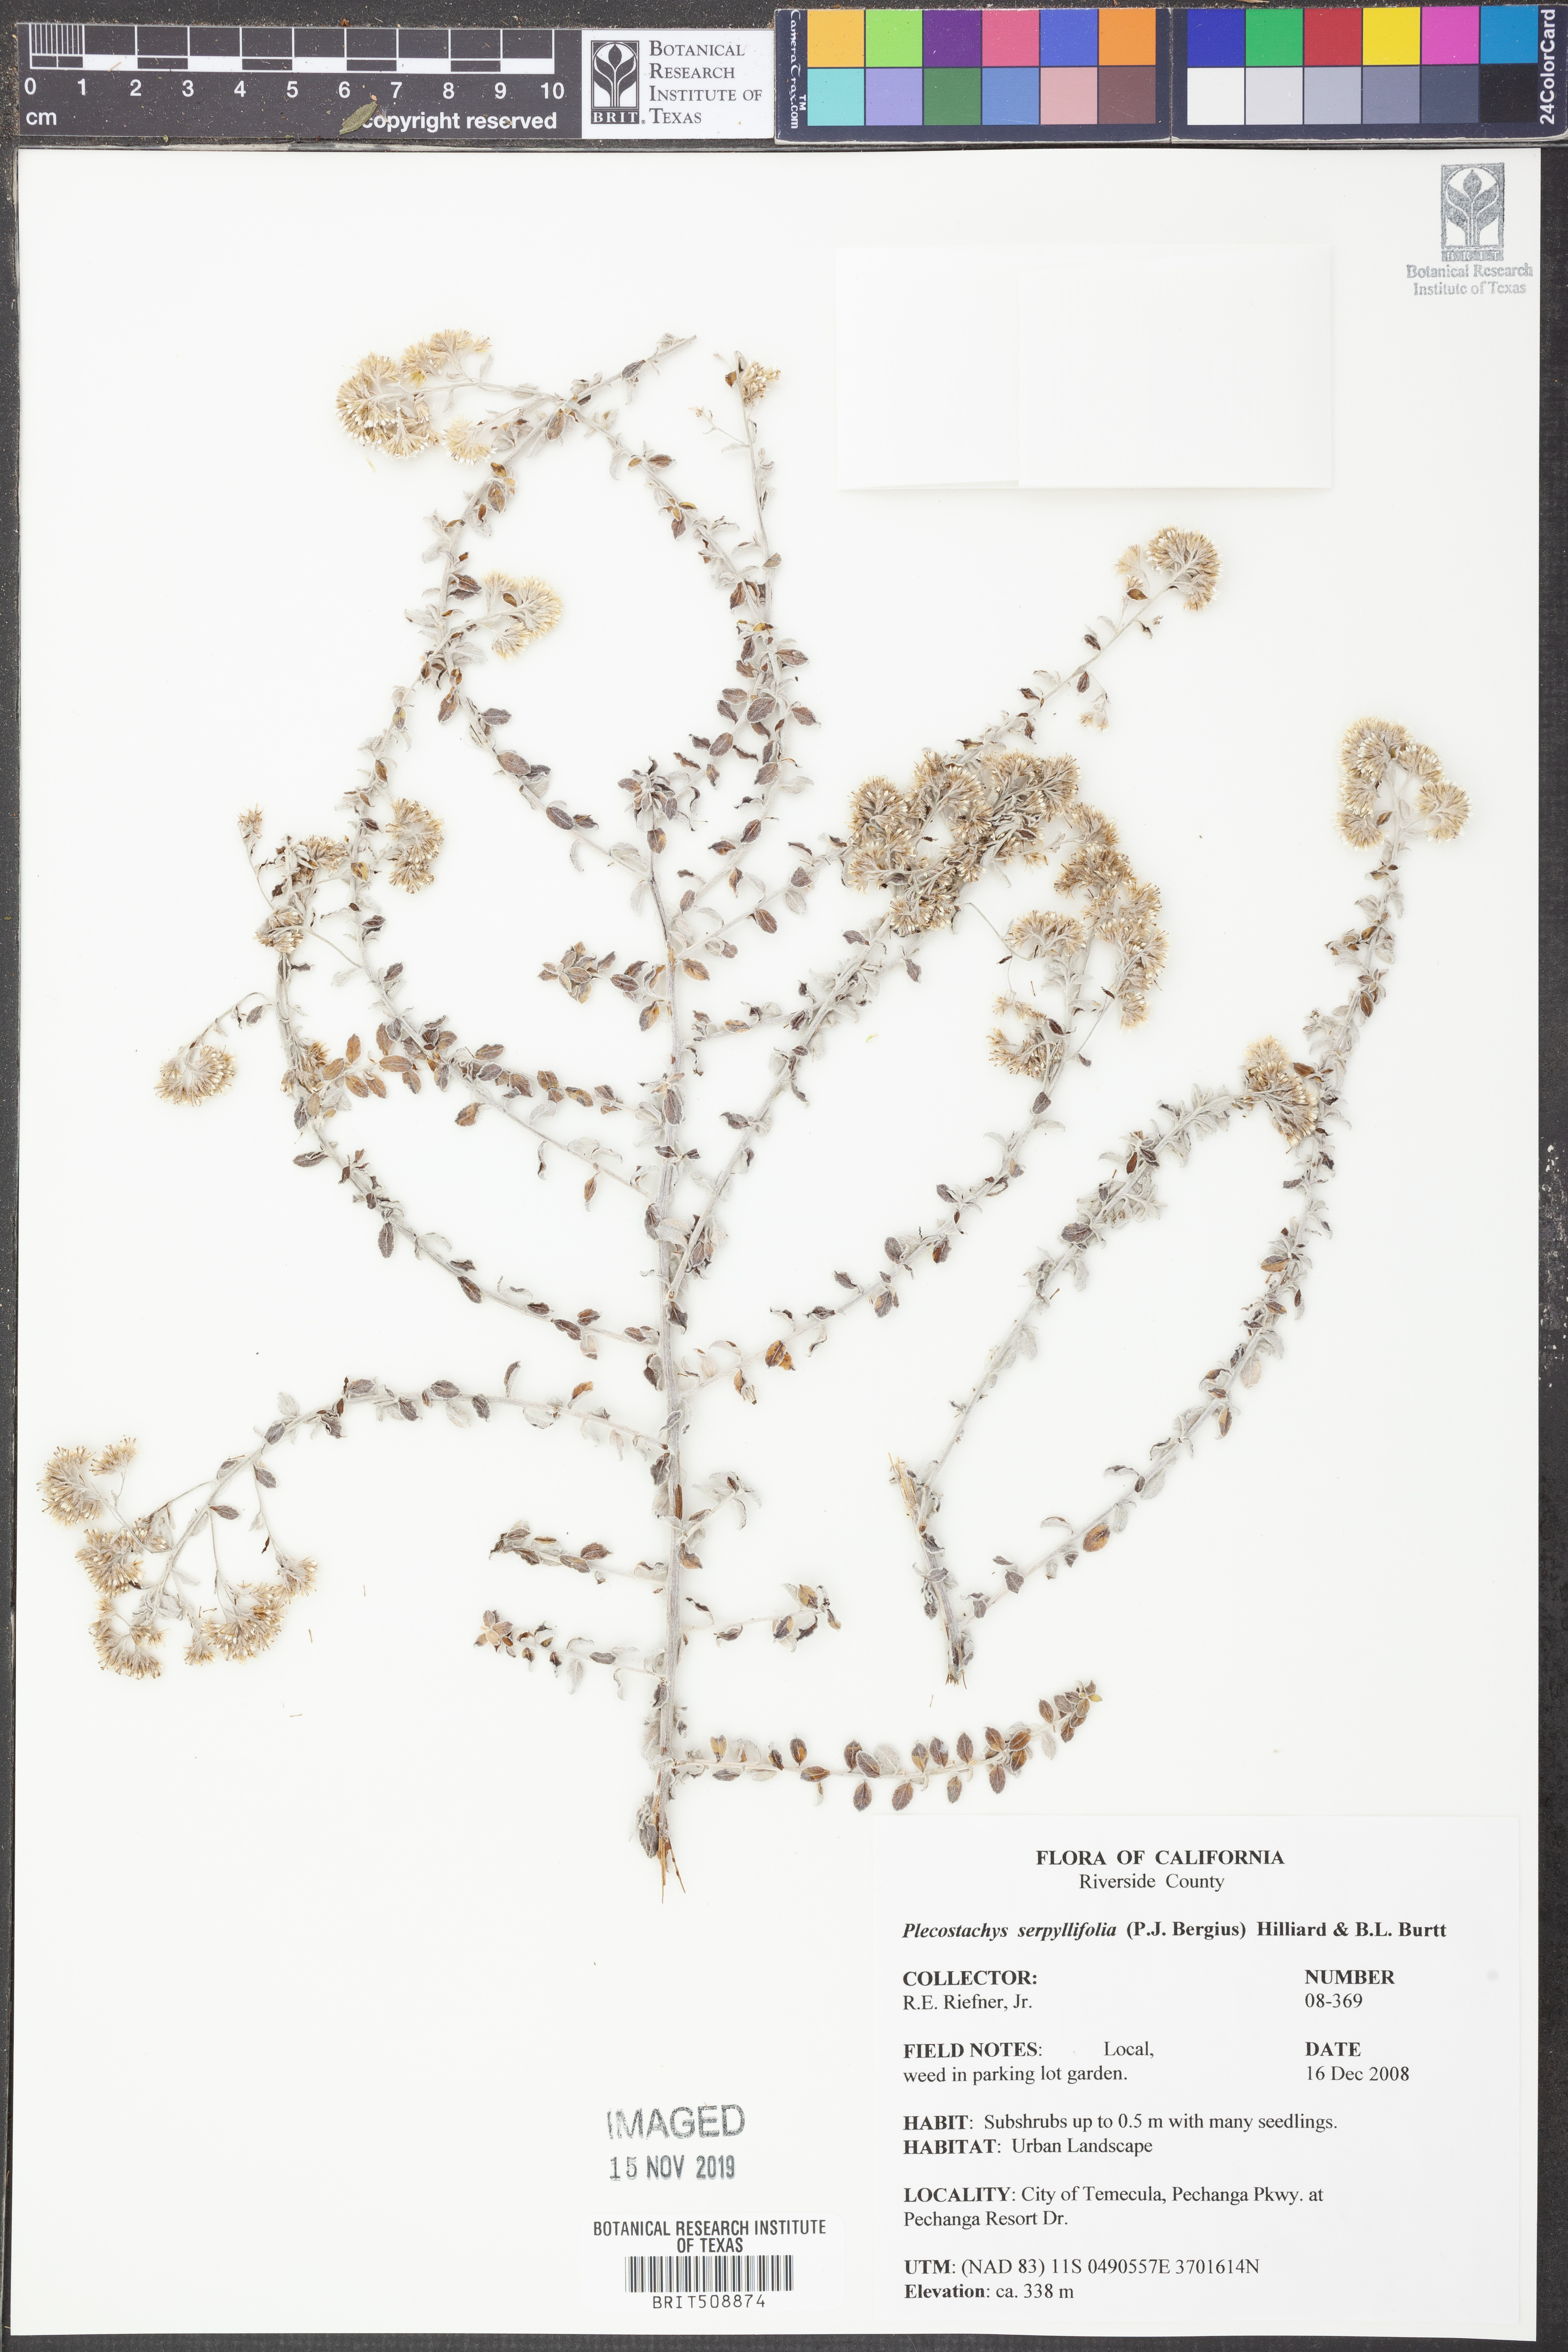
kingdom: Plantae
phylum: Tracheophyta
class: Magnoliopsida
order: Asterales
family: Asteraceae
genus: Plecostachys
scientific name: Plecostachys serpyllifolia
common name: Petite licorice
